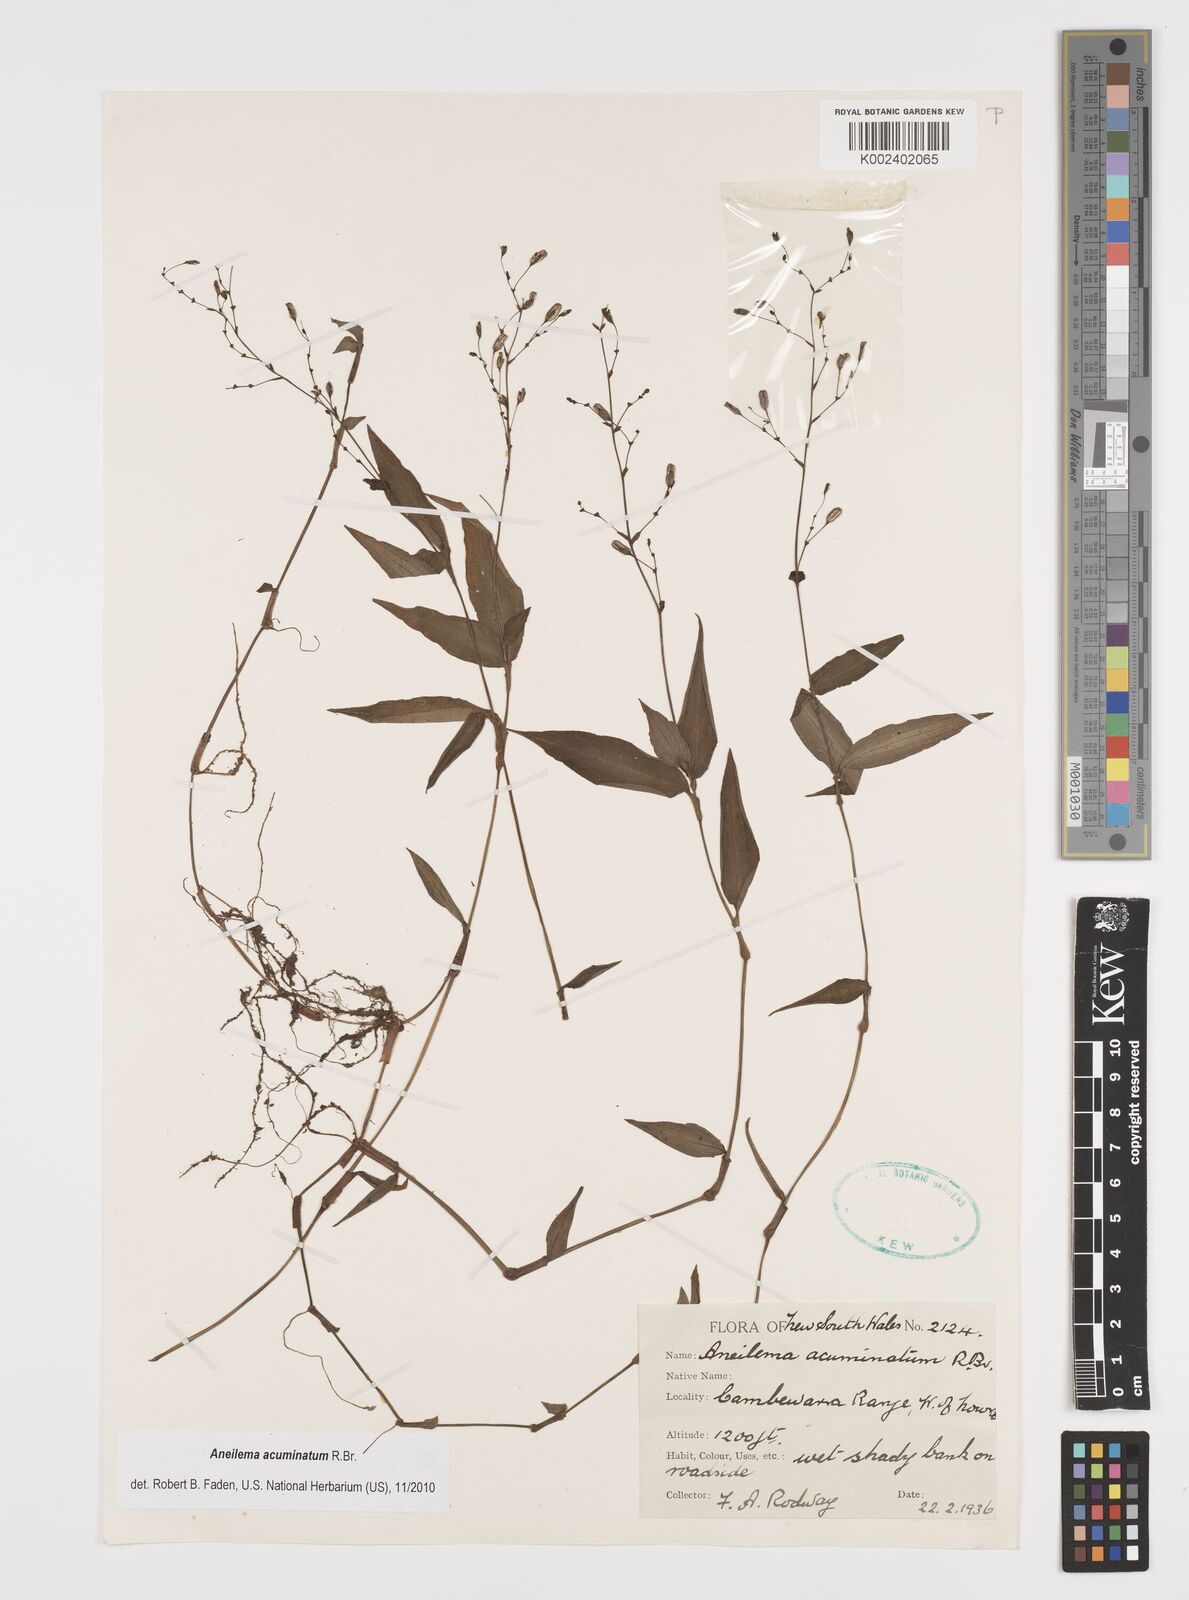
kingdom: Plantae
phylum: Tracheophyta
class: Liliopsida
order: Commelinales
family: Commelinaceae
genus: Aneilema
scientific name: Aneilema acuminatum
